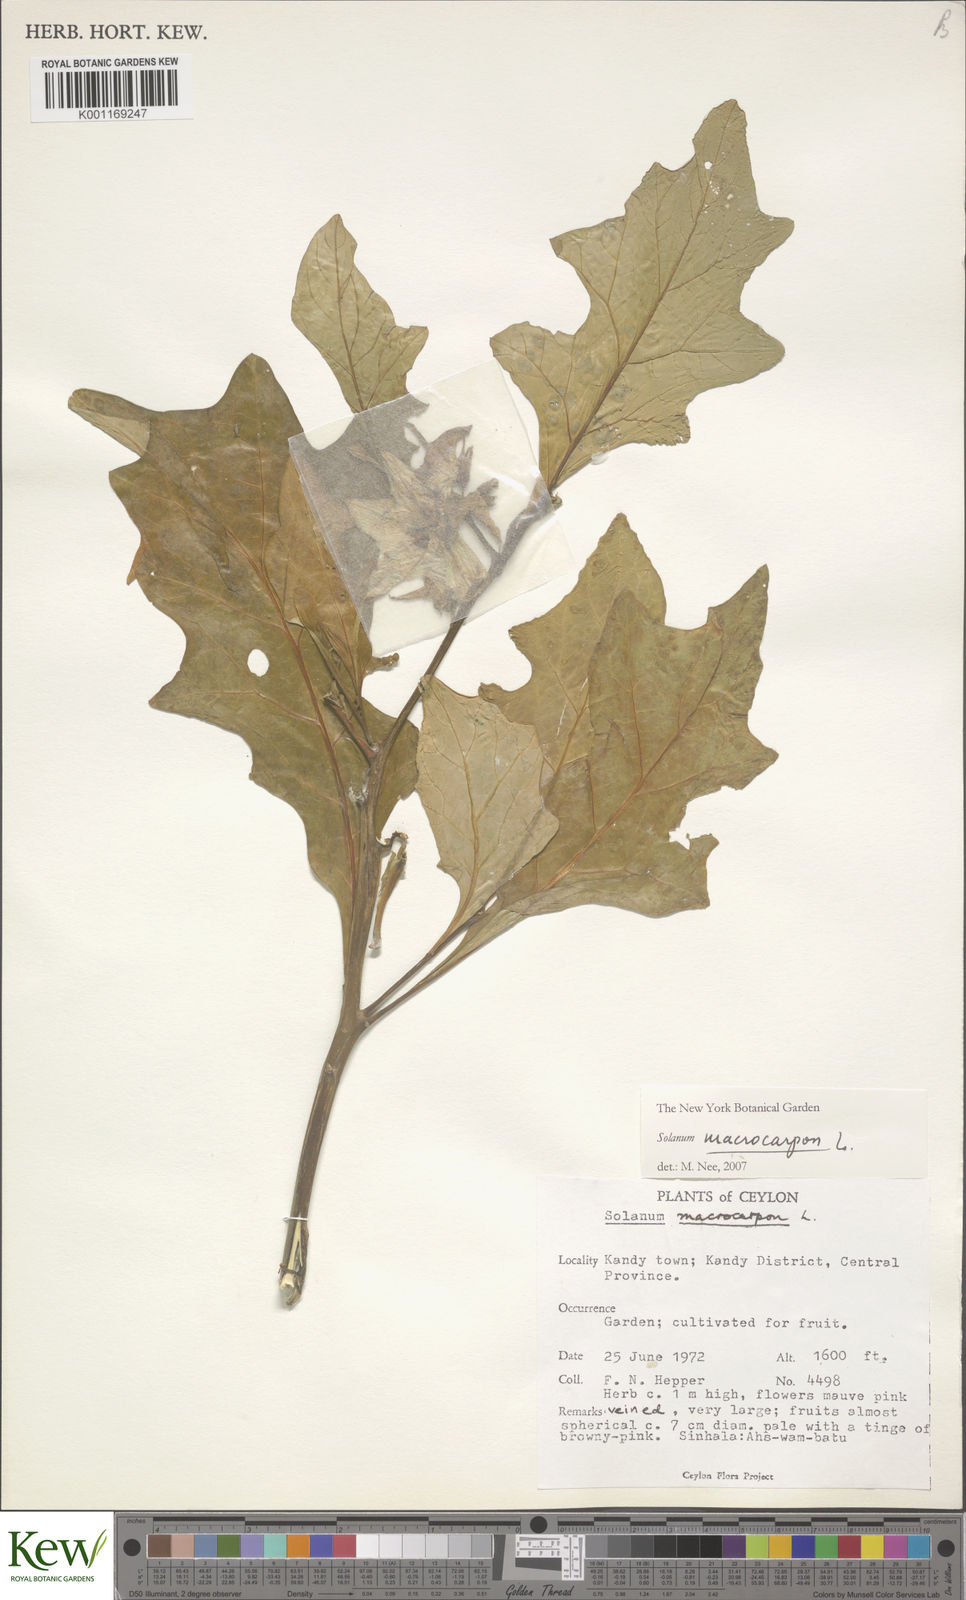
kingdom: Plantae
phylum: Tracheophyta
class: Magnoliopsida
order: Solanales
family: Solanaceae
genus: Solanum
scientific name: Solanum macrocarpon
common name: African eggplant
